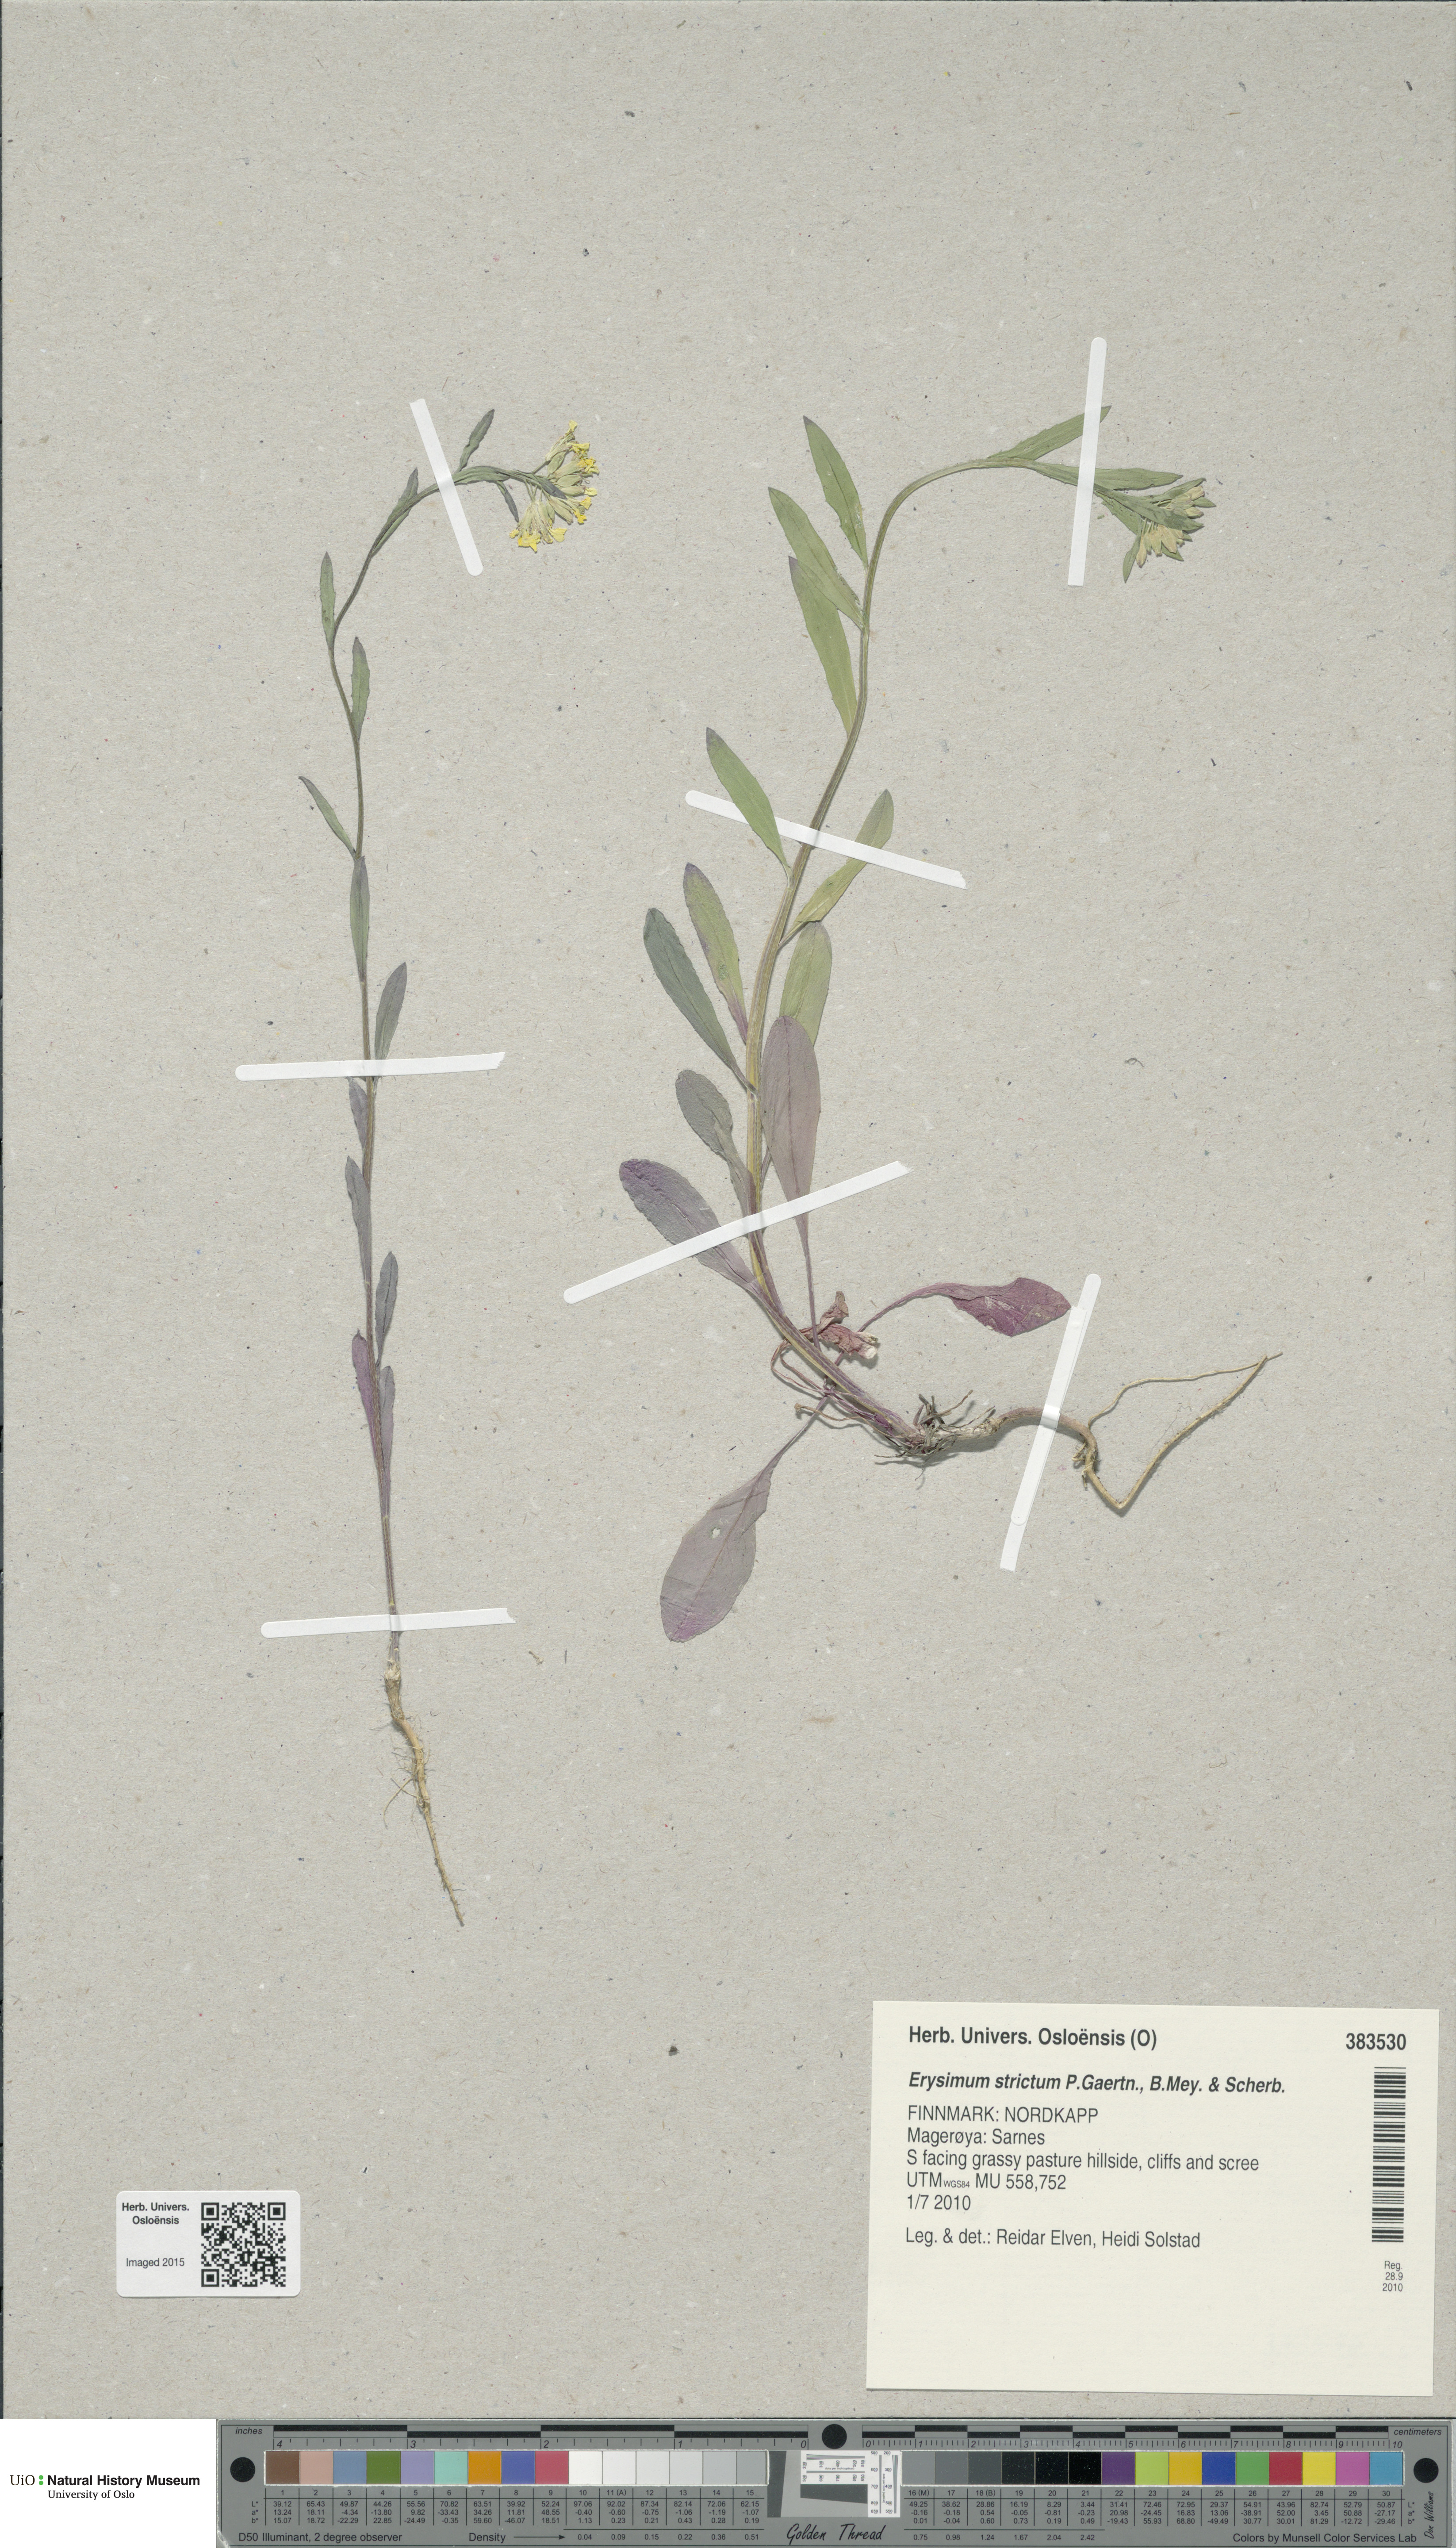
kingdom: Plantae
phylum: Tracheophyta
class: Magnoliopsida
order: Brassicales
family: Brassicaceae
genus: Erysimum
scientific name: Erysimum virgatum
